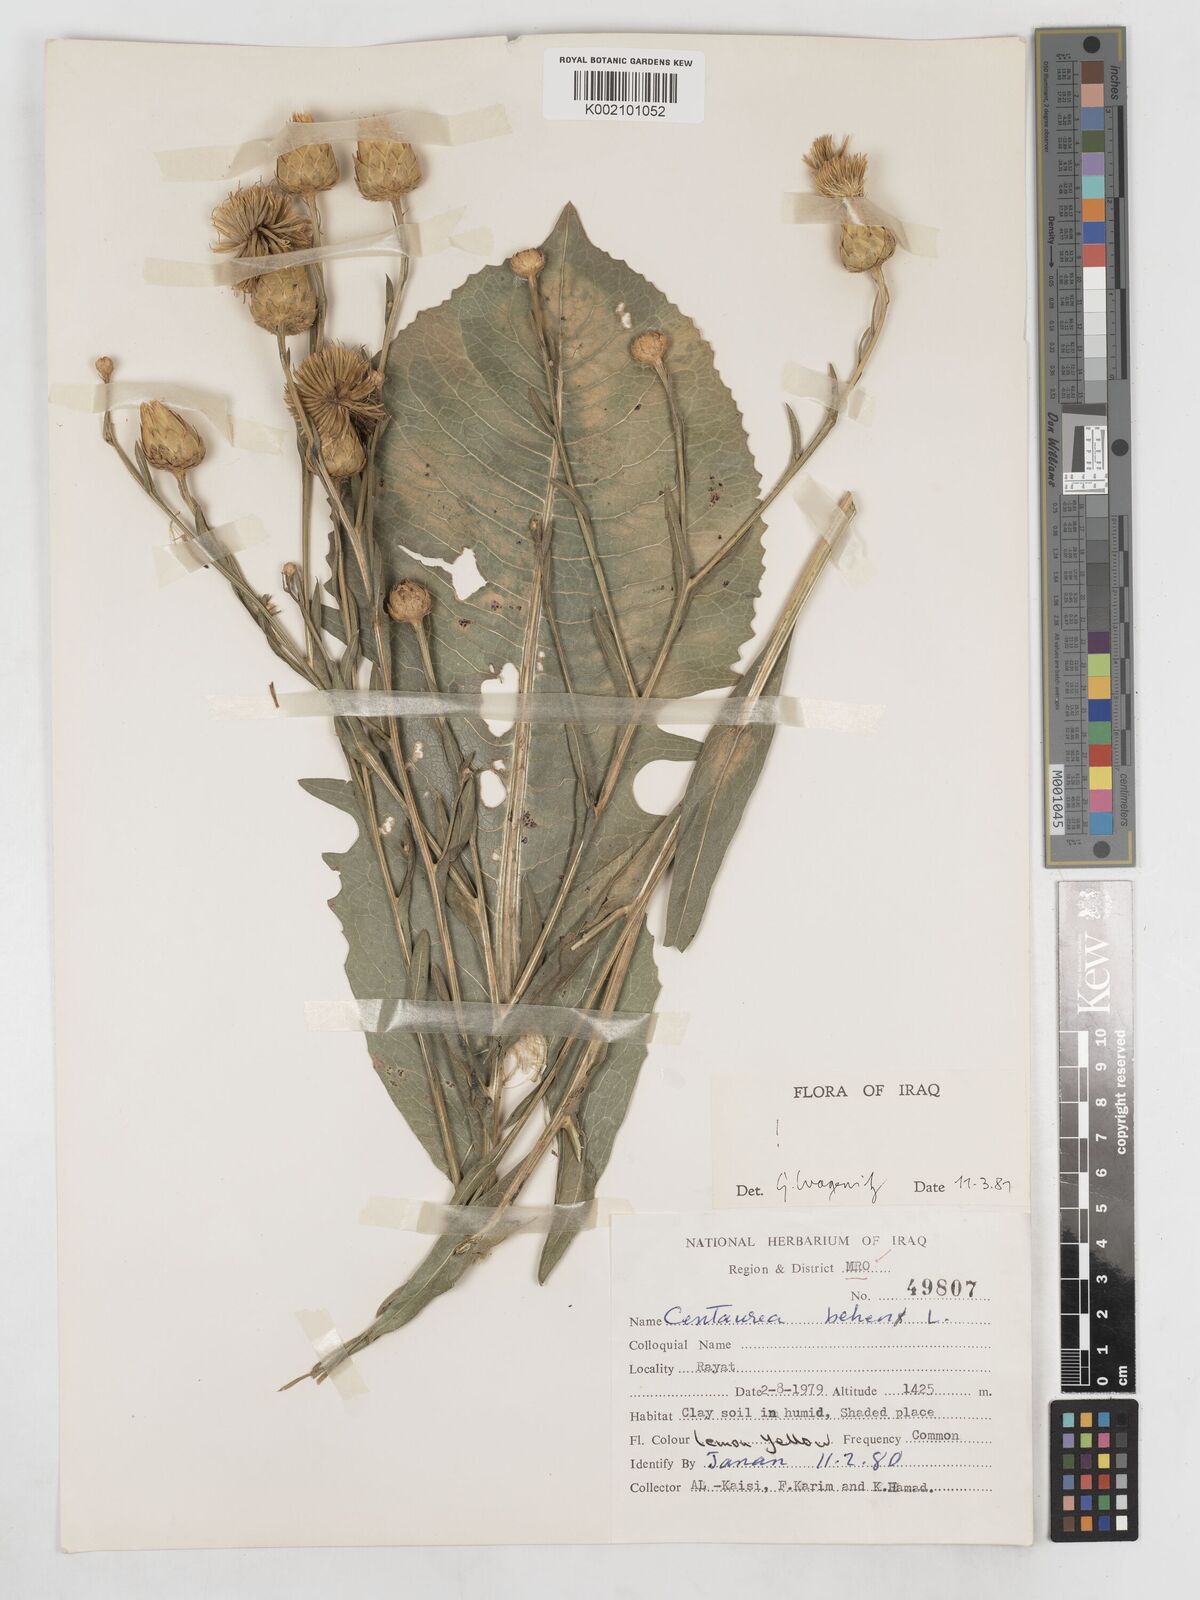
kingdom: Plantae
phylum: Tracheophyta
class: Magnoliopsida
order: Asterales
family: Asteraceae
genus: Centaurea
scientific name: Centaurea behen
